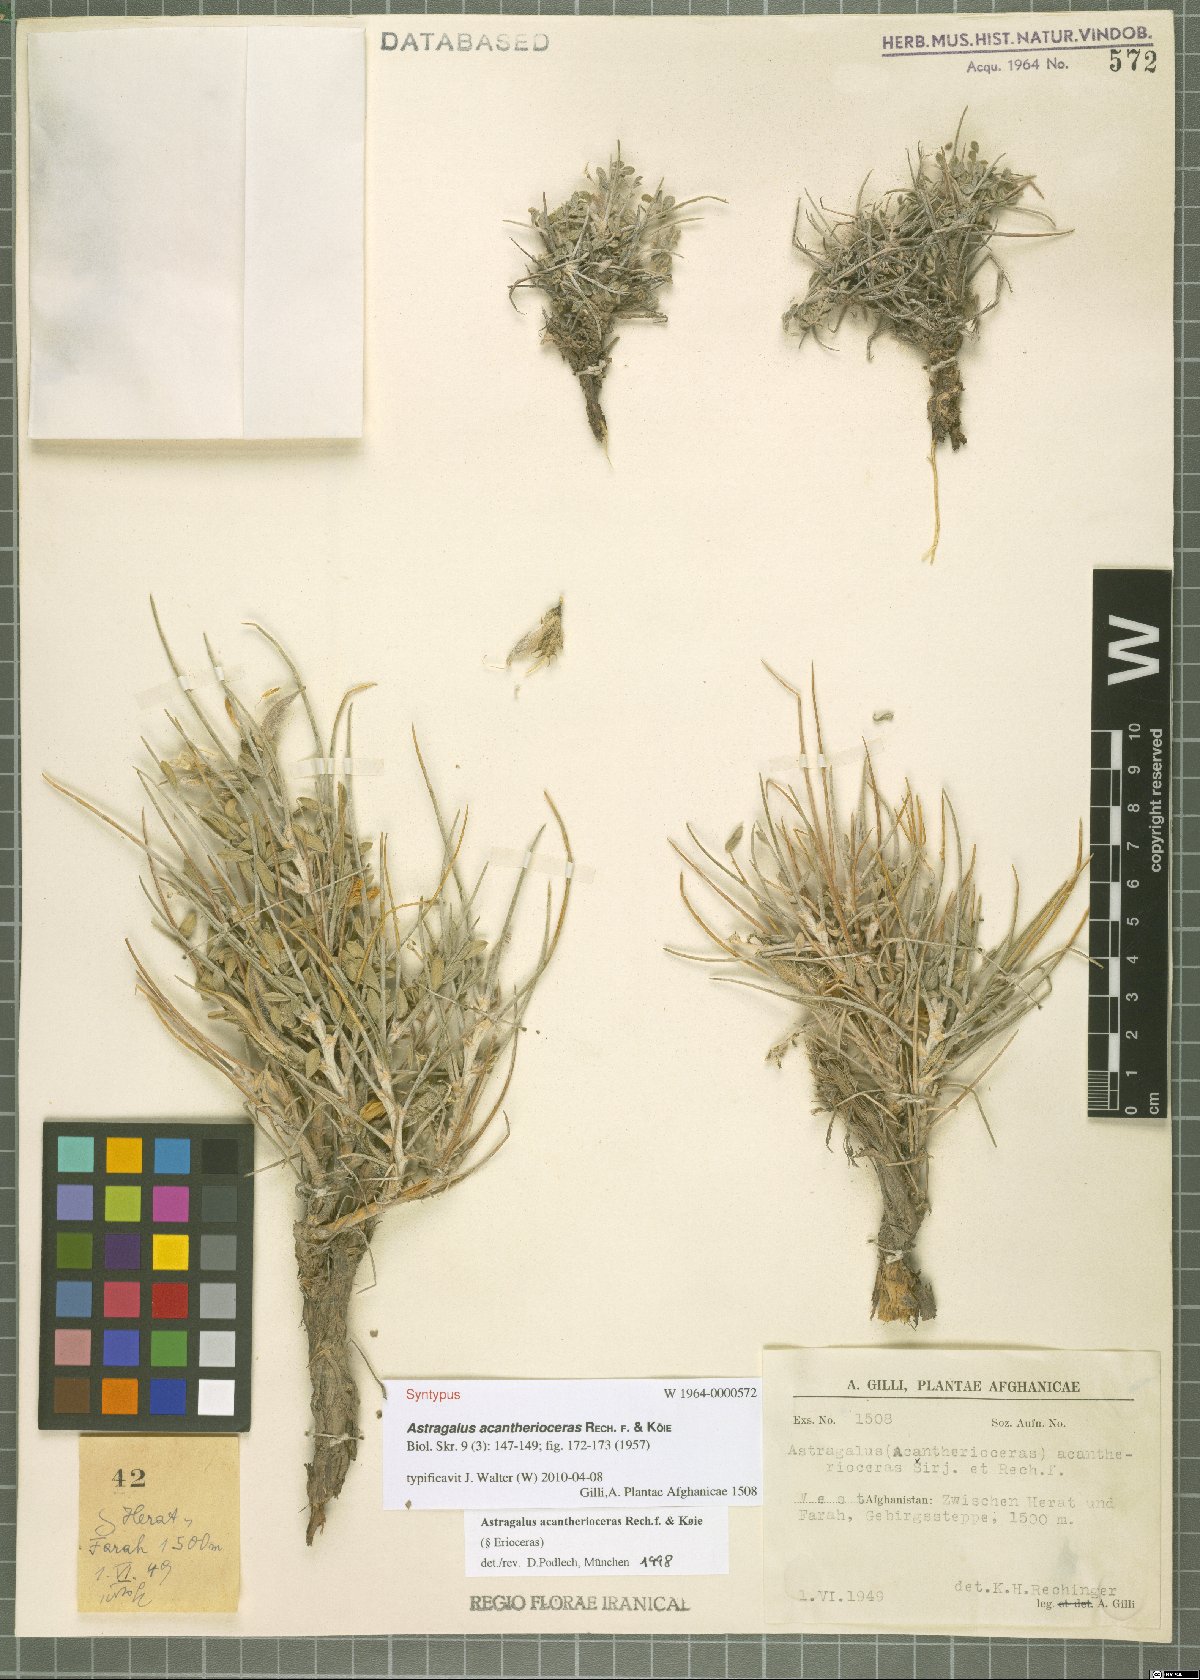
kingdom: Plantae
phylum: Tracheophyta
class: Magnoliopsida
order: Fabales
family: Fabaceae
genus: Astragalus
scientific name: Astragalus goreanus
